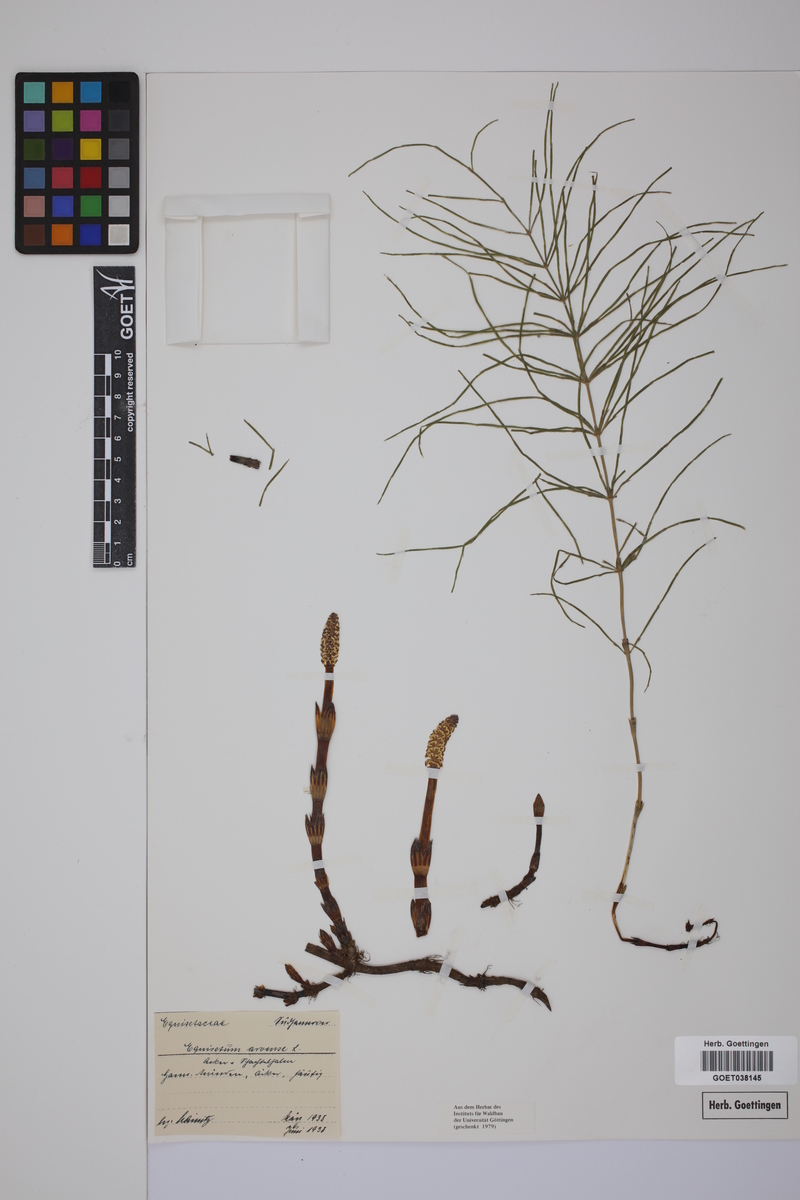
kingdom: Plantae
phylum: Tracheophyta
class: Polypodiopsida
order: Equisetales
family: Equisetaceae
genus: Equisetum
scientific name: Equisetum arvense
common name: Field horsetail
